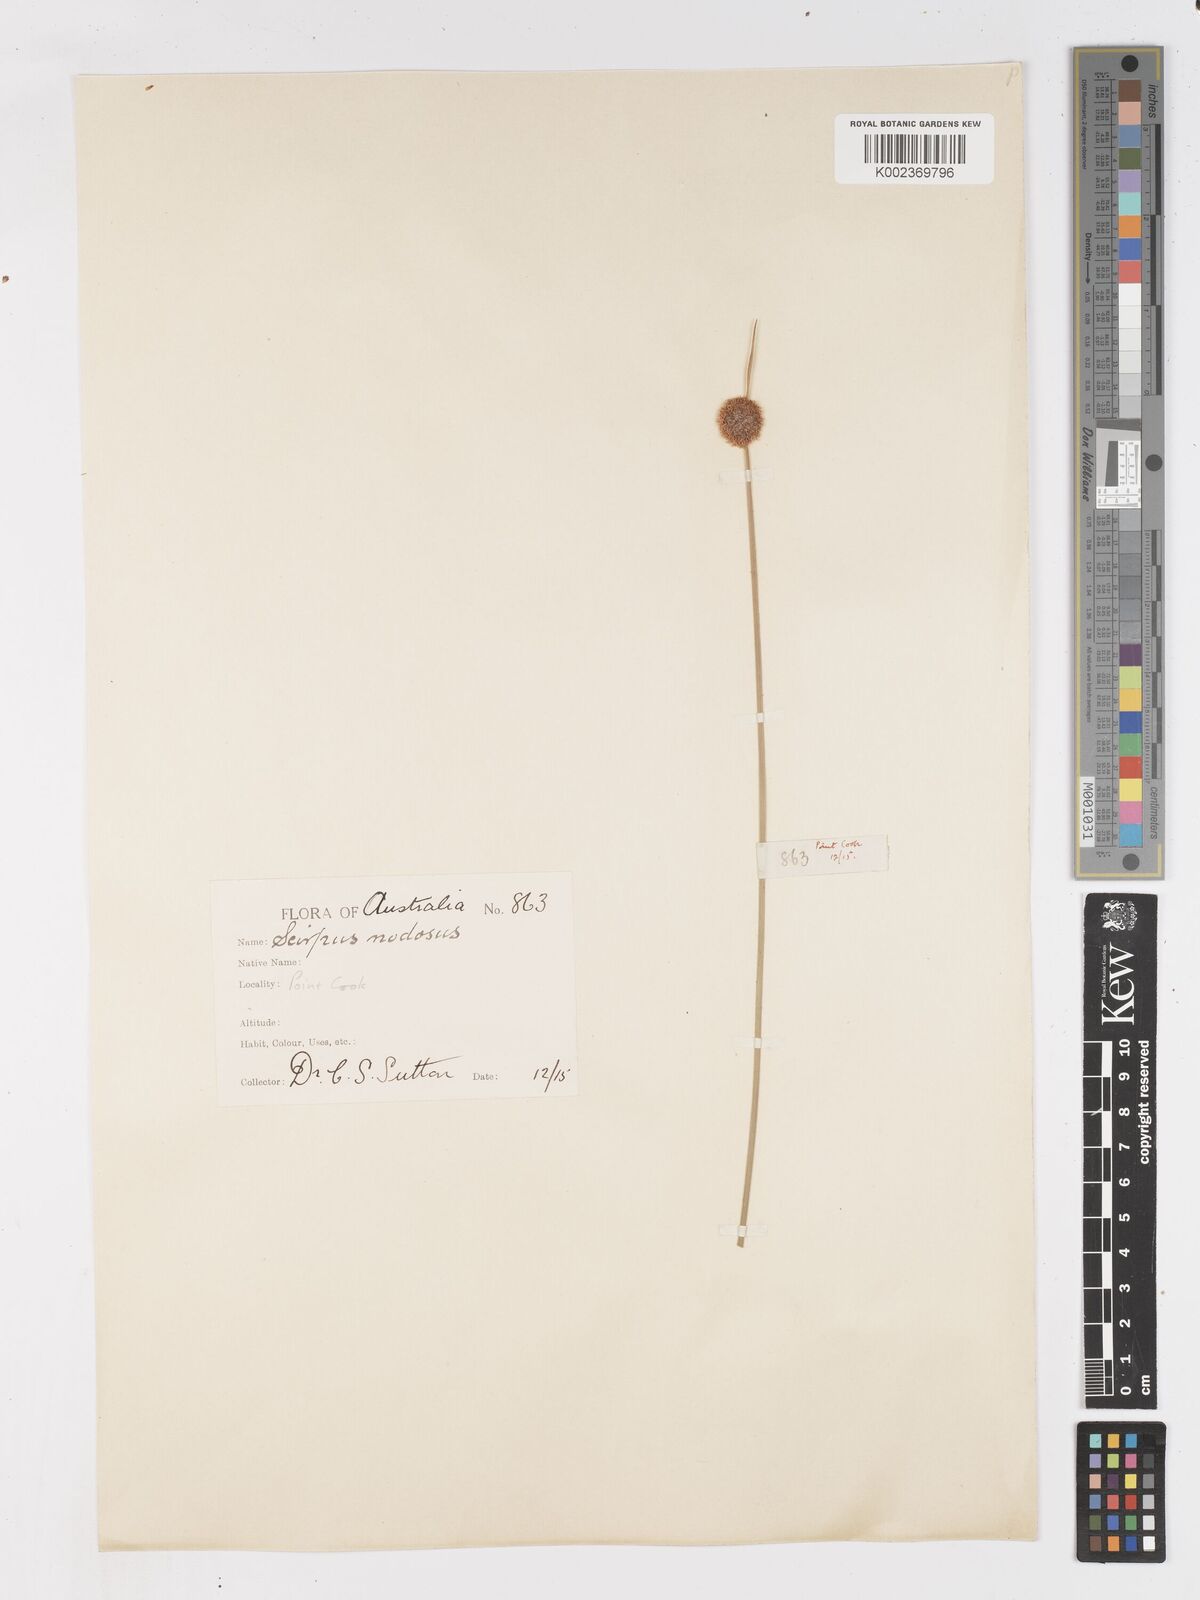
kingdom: Plantae
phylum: Tracheophyta
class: Liliopsida
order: Poales
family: Cyperaceae
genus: Ficinia
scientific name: Ficinia nodosa
